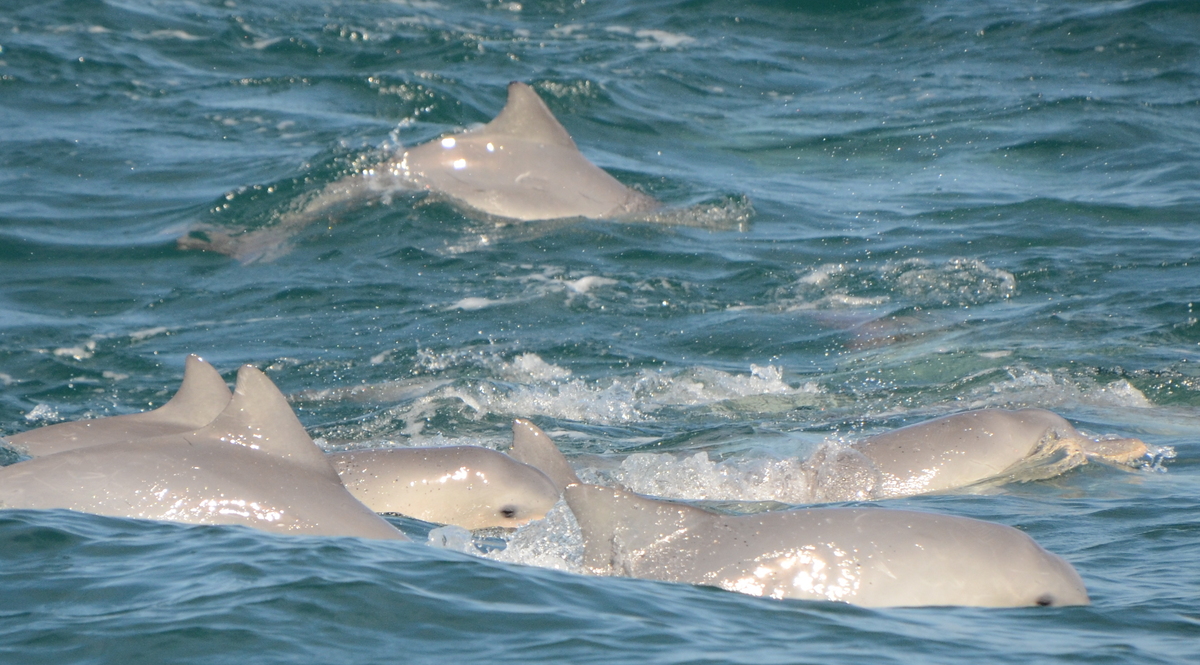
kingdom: Animalia
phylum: Chordata
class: Mammalia
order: Cetacea
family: Delphinidae
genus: Sotalia
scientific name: Sotalia guianensis
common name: Guiana dolphin
